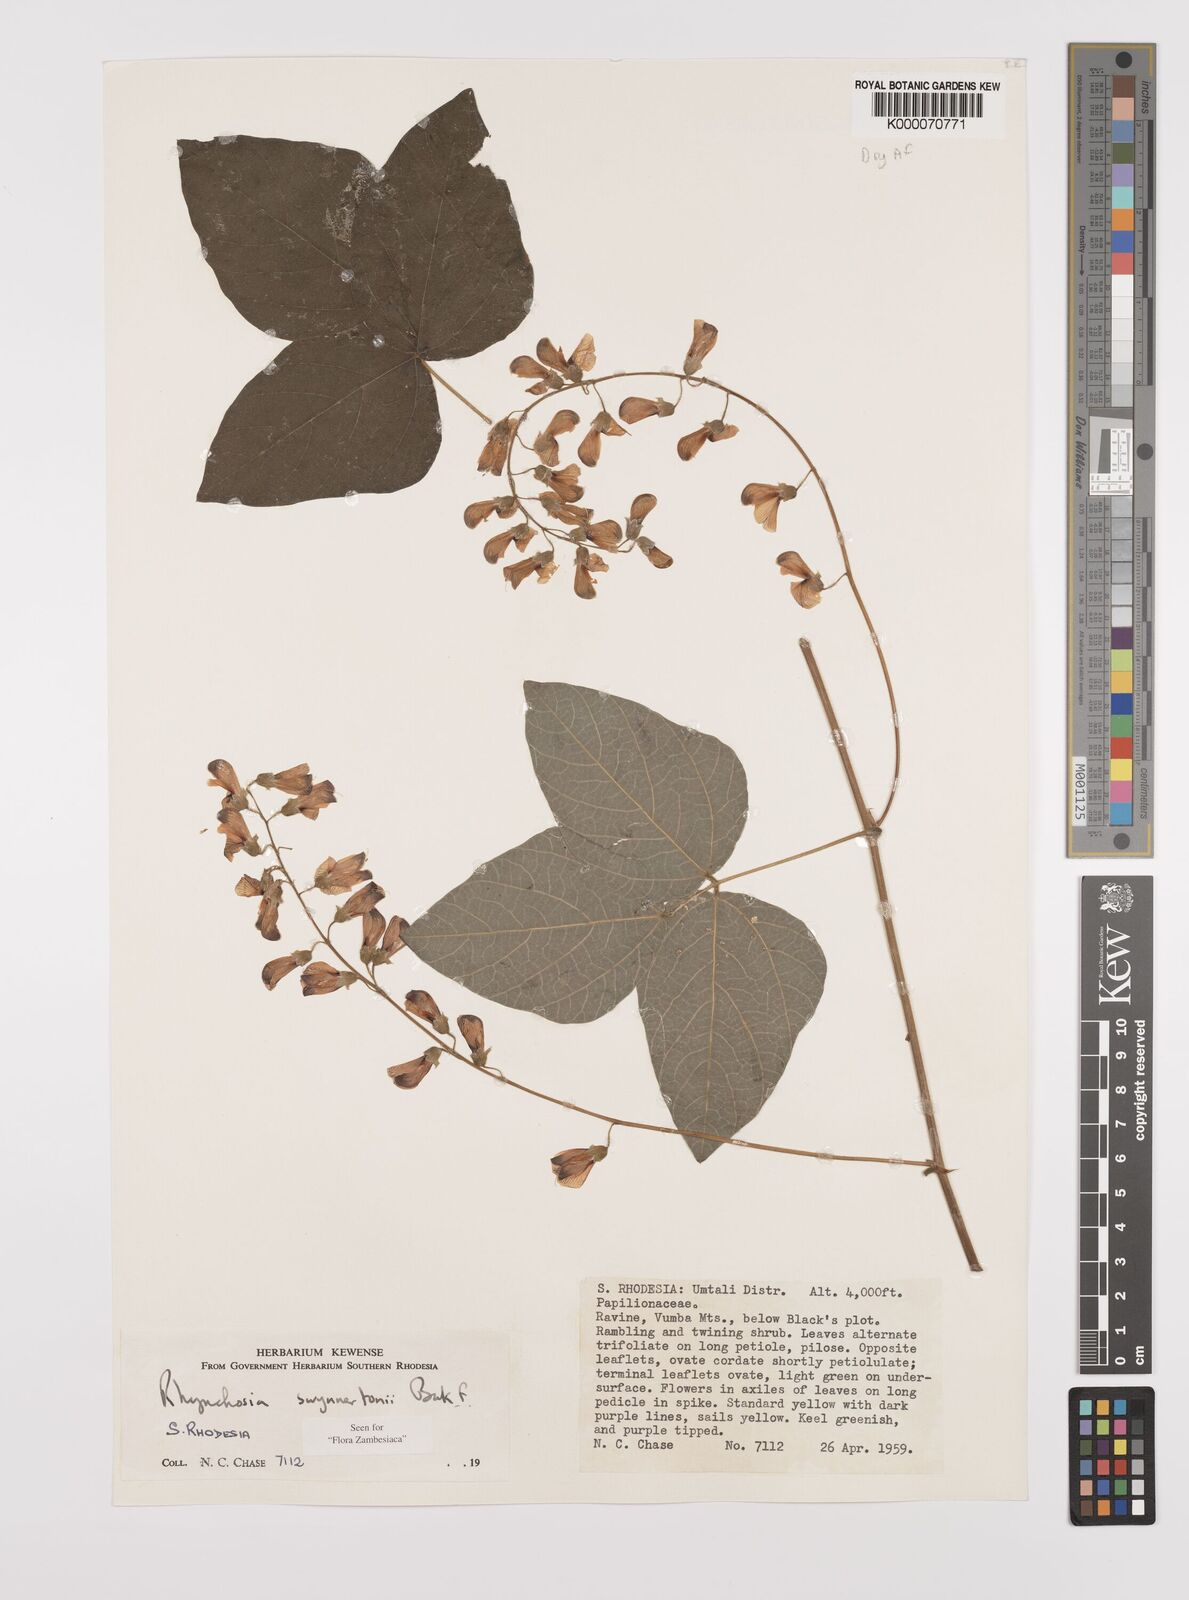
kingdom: Plantae
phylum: Tracheophyta
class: Magnoliopsida
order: Fabales
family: Fabaceae
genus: Rhynchosia
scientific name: Rhynchosia swynnertonii
